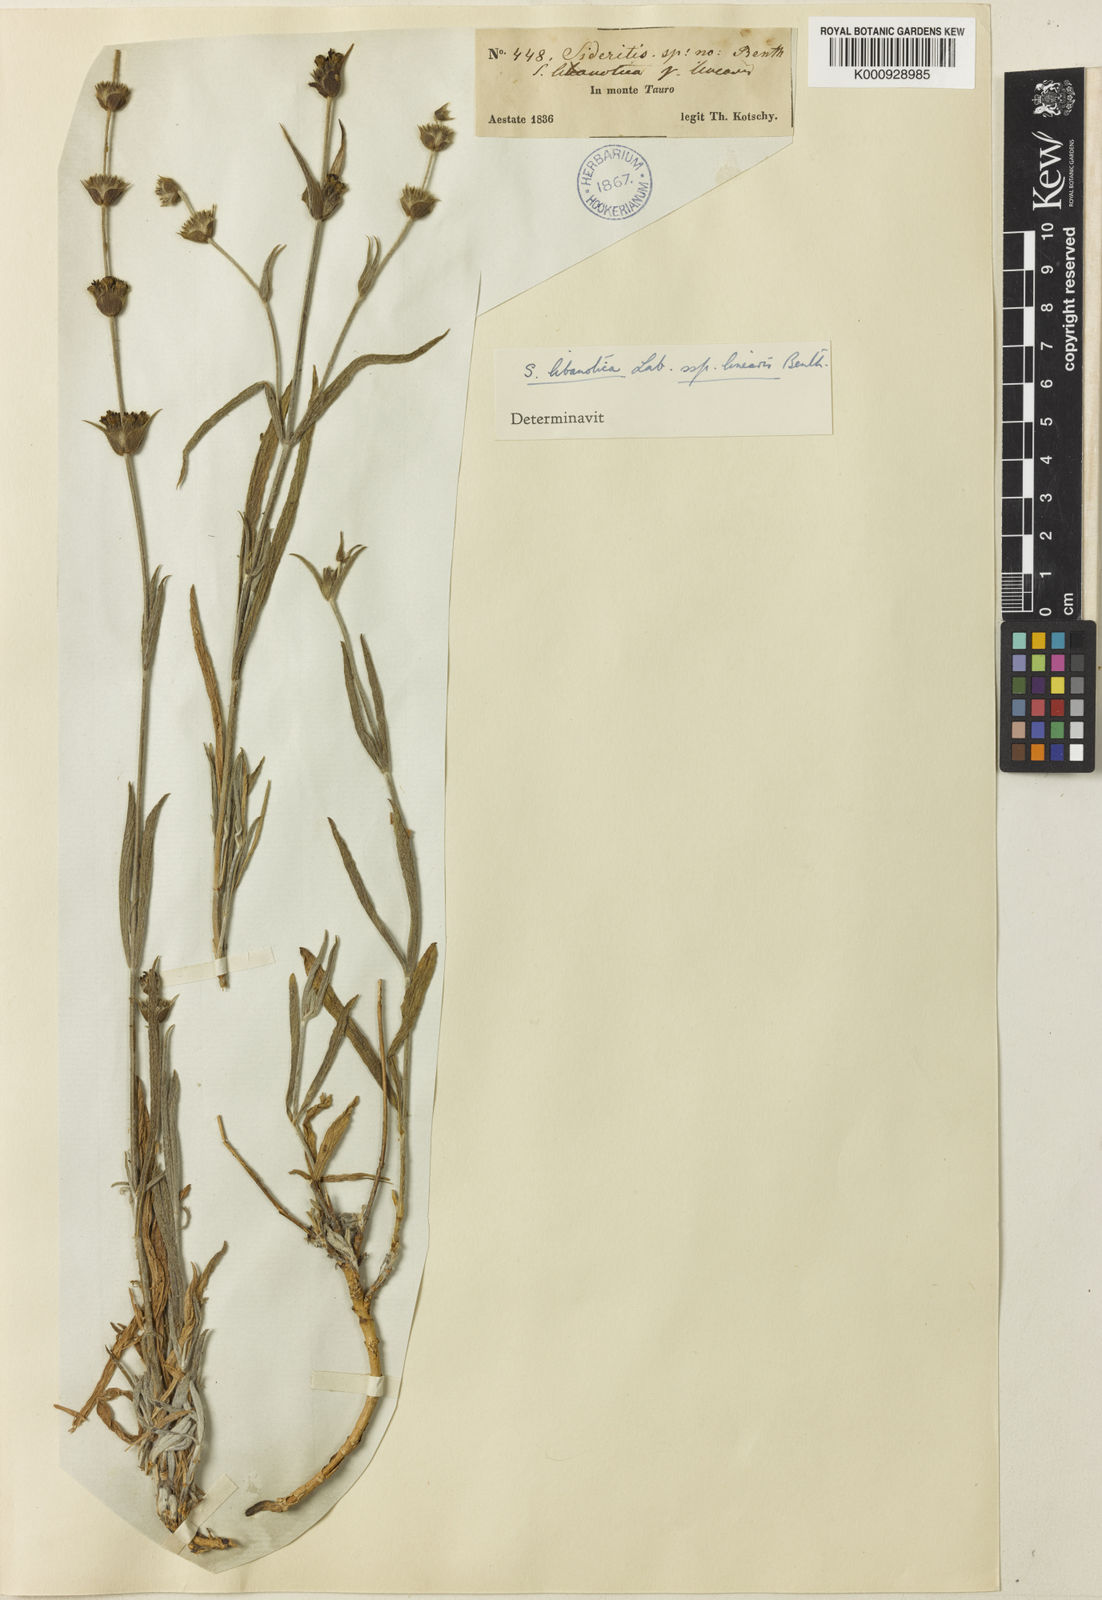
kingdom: Plantae
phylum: Tracheophyta
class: Magnoliopsida
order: Lamiales
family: Lamiaceae
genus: Sideritis
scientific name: Sideritis libanotica
